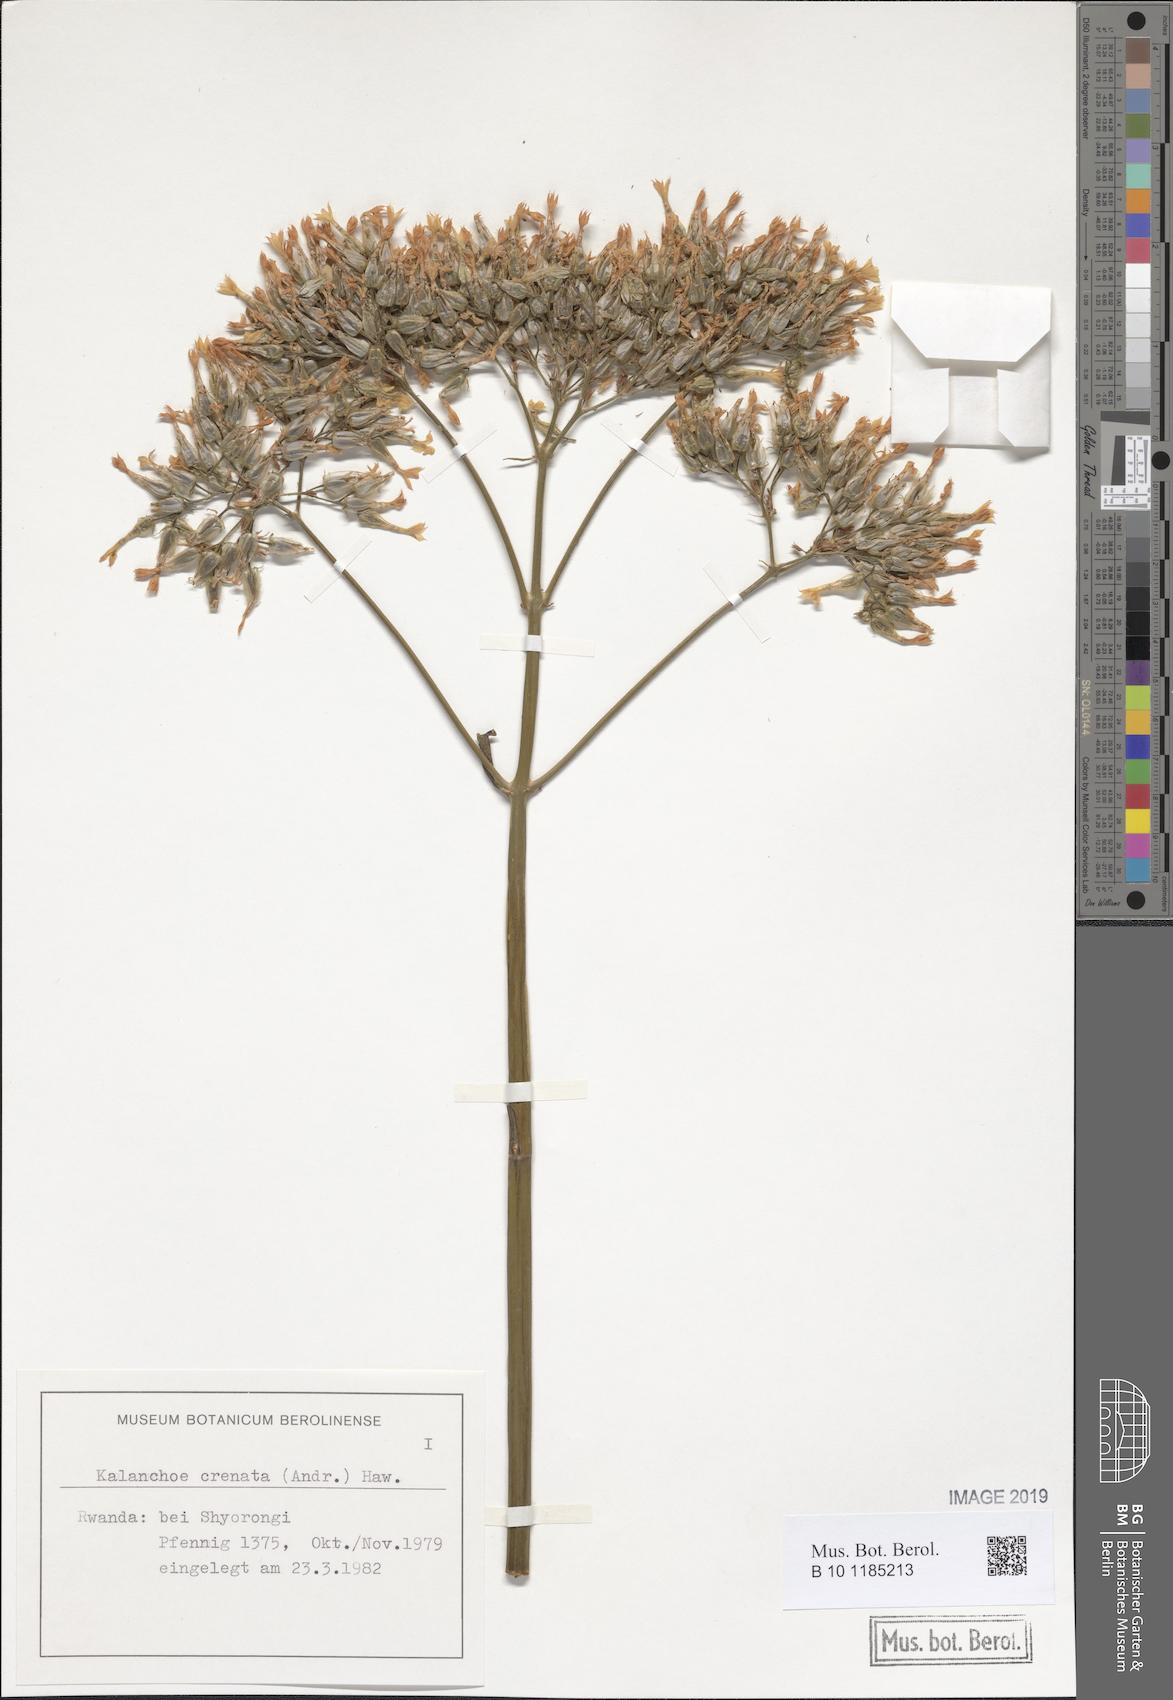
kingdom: Plantae
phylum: Tracheophyta
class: Magnoliopsida
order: Saxifragales
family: Crassulaceae
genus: Kalanchoe
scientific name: Kalanchoe crenata
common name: Neverdie
